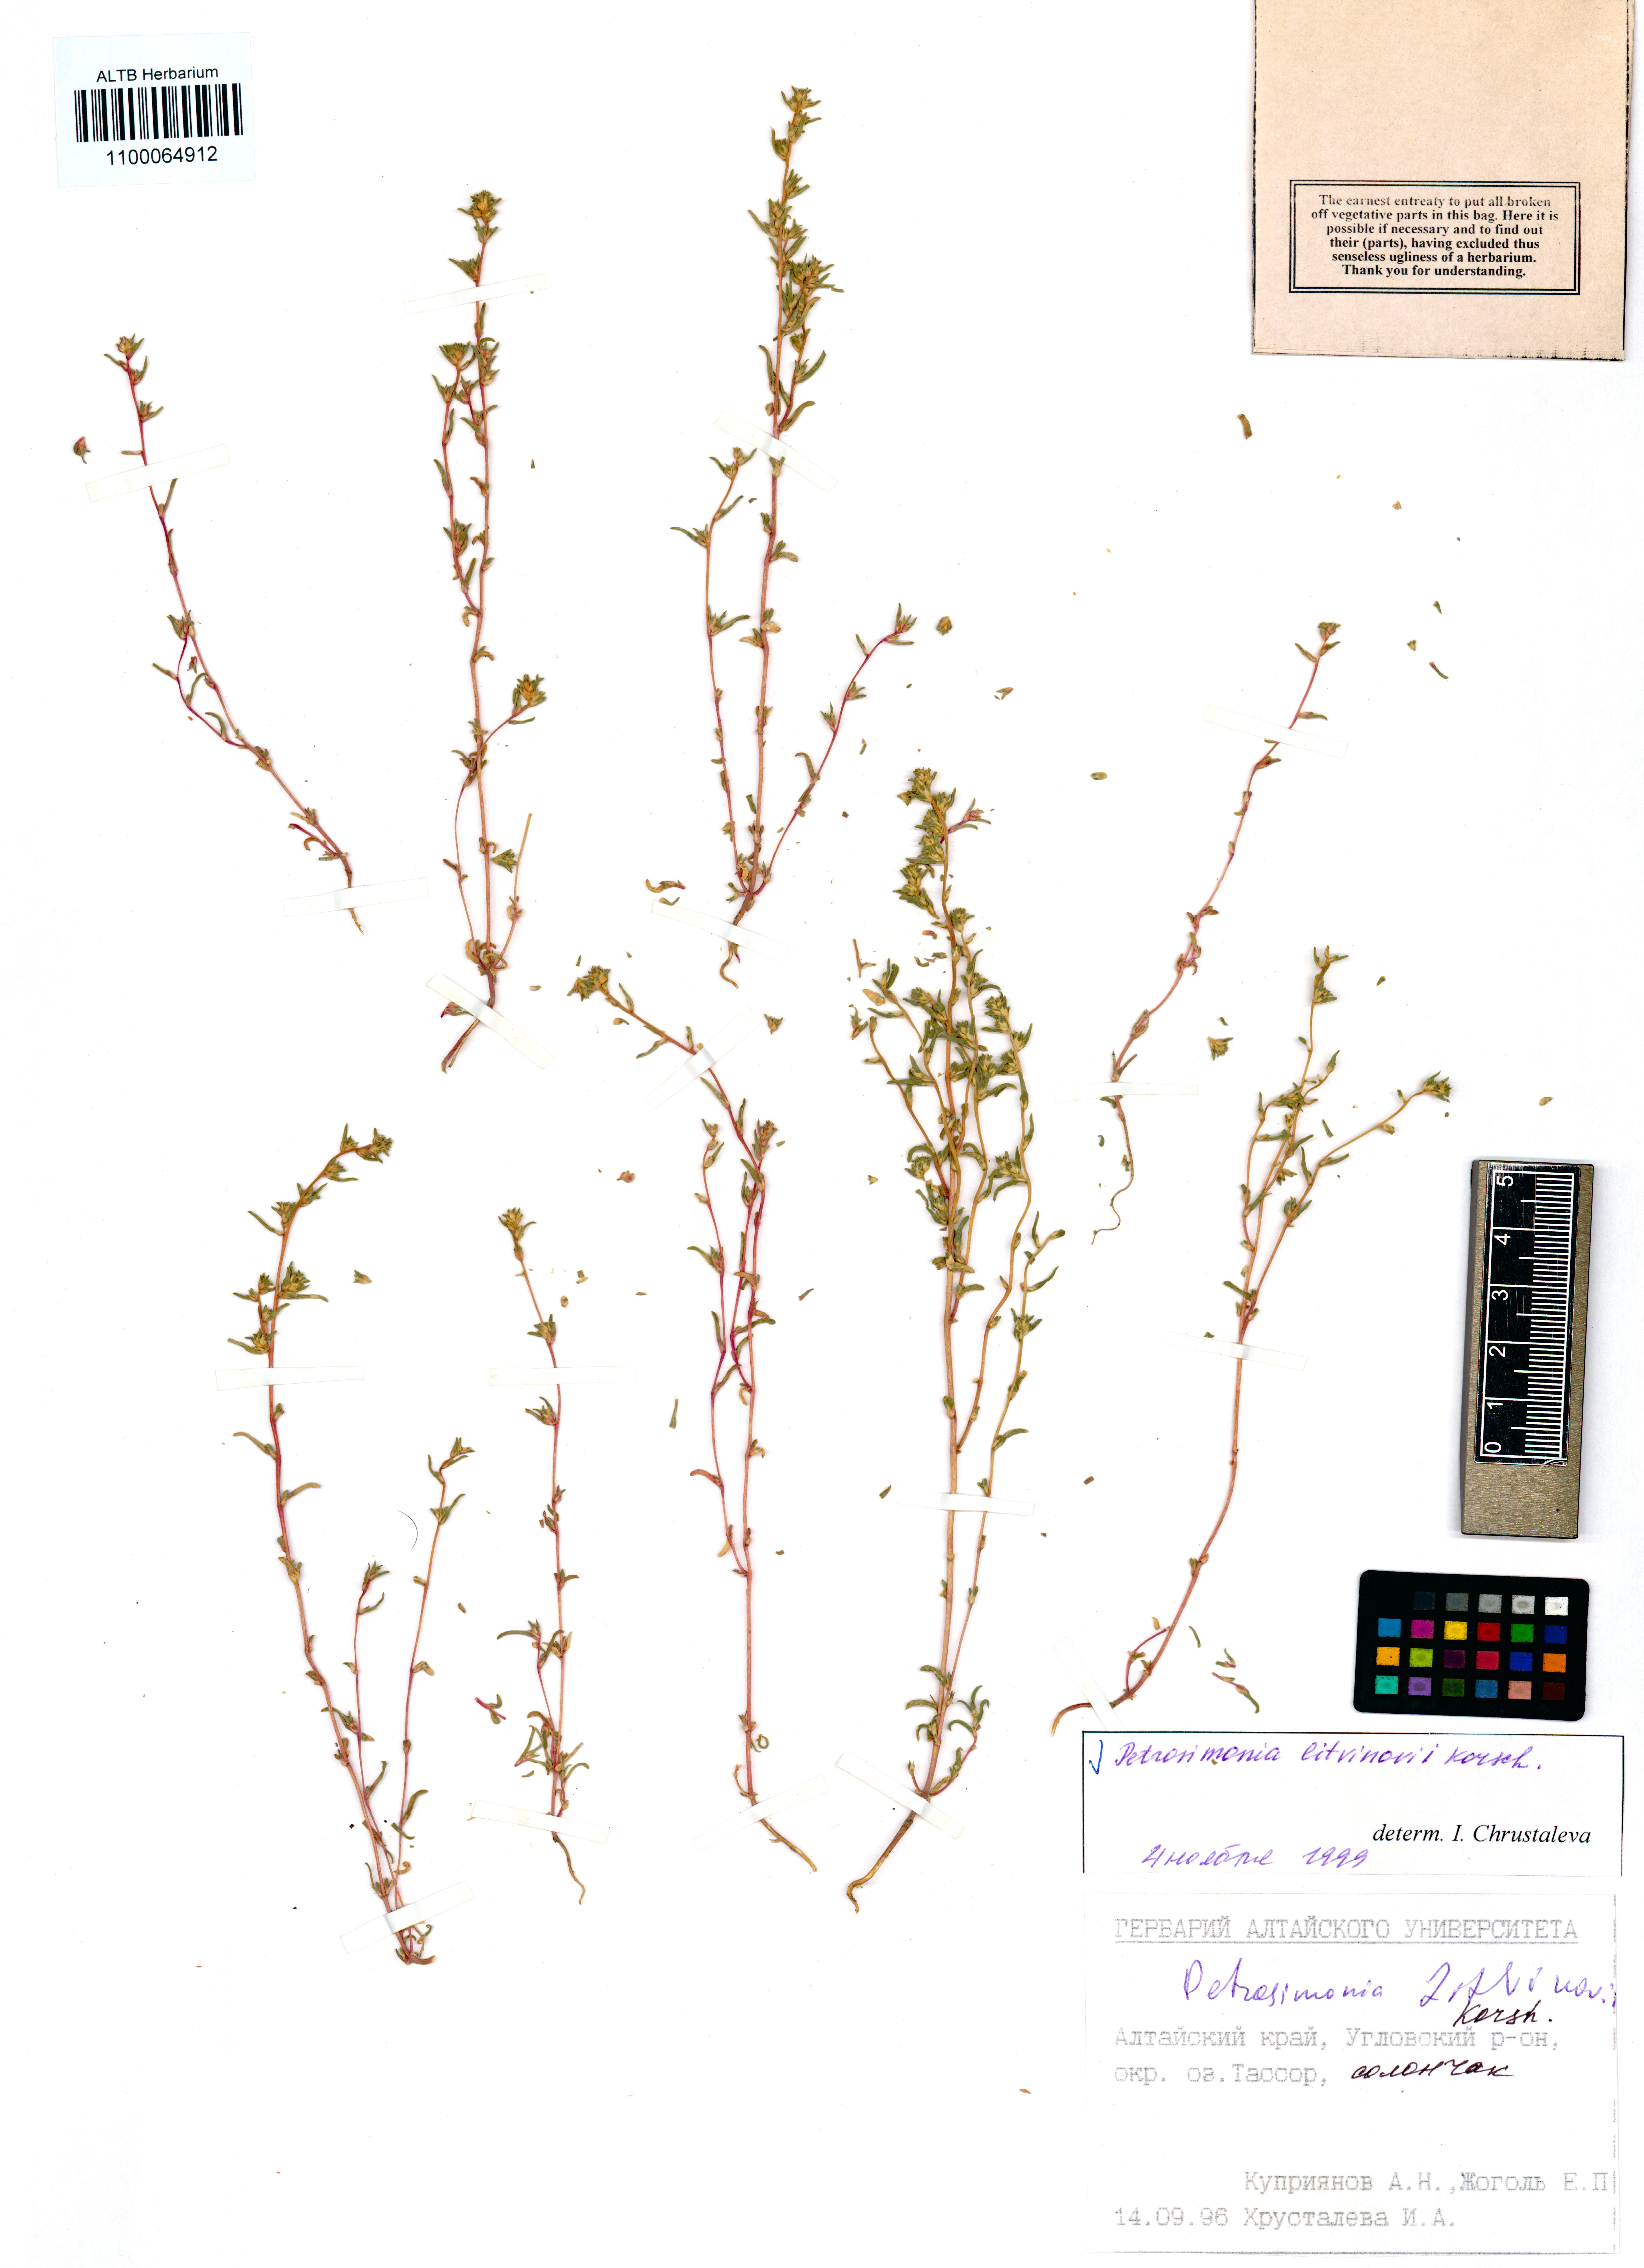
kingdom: Plantae
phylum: Tracheophyta
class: Magnoliopsida
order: Caryophyllales
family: Amaranthaceae
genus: Petrosimonia
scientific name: Petrosimonia litvinowi
